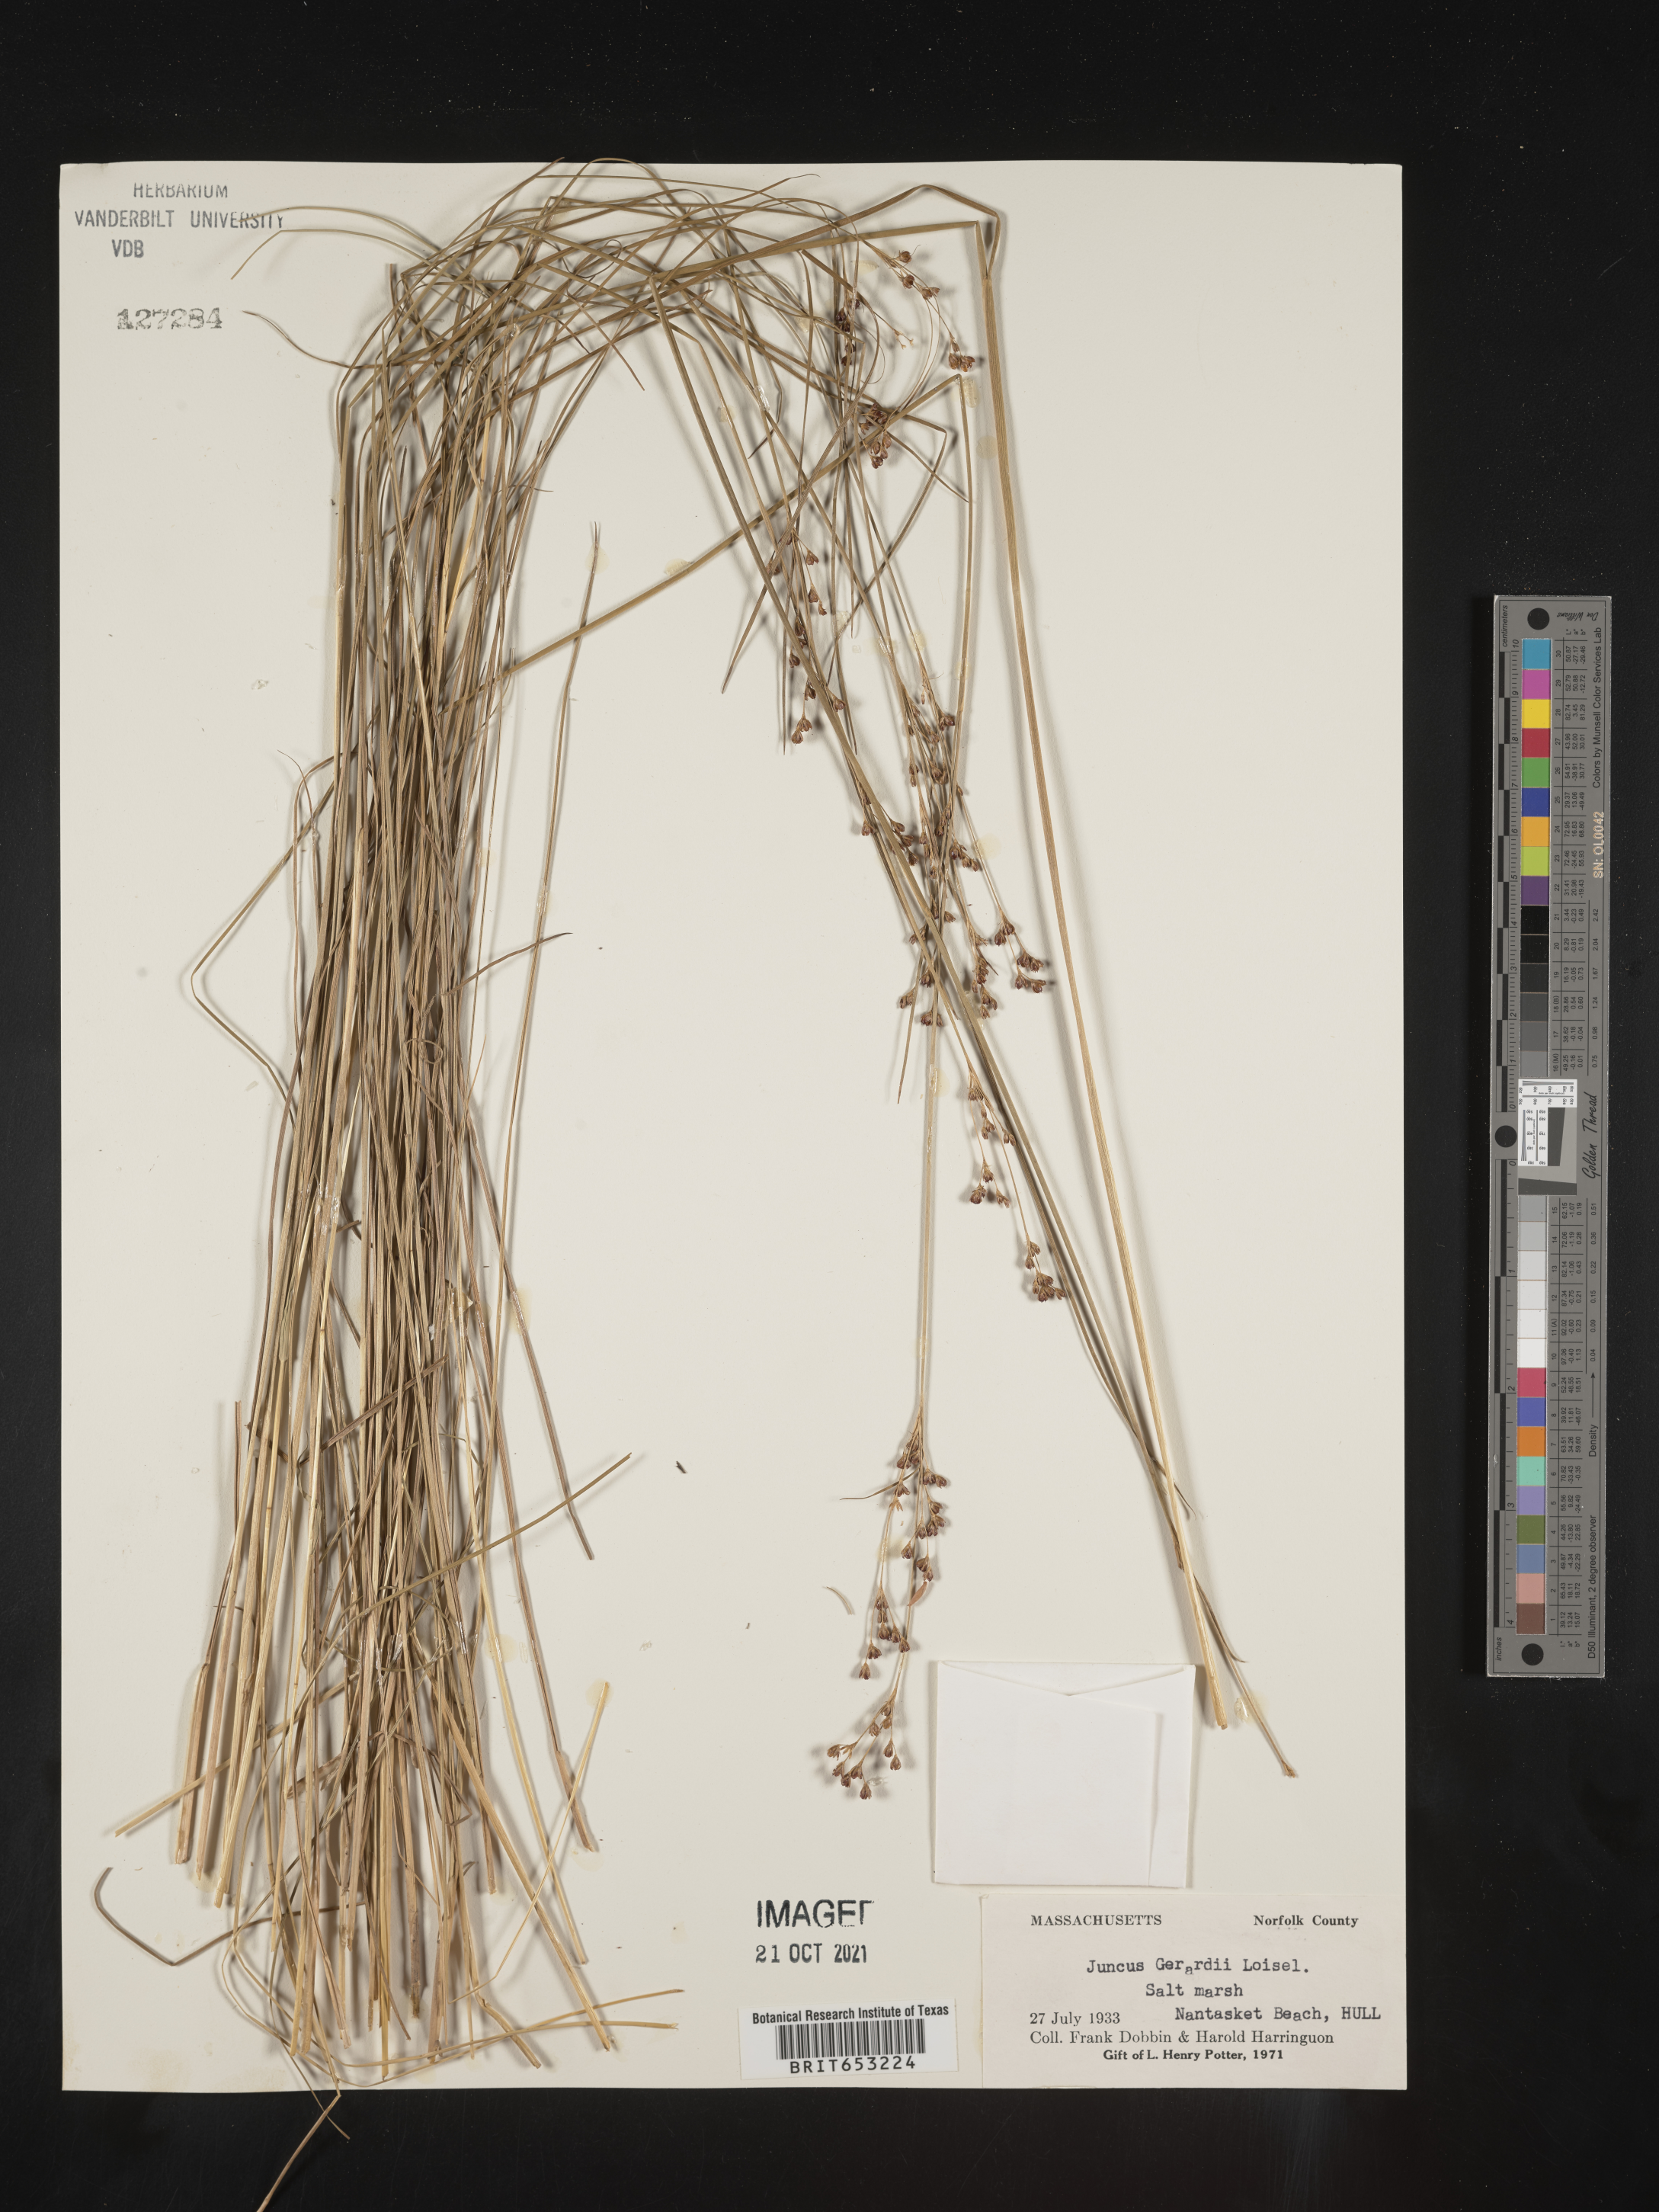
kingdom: Plantae
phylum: Tracheophyta
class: Liliopsida
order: Poales
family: Juncaceae
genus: Juncus
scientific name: Juncus gerardi
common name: Saltmarsh rush
